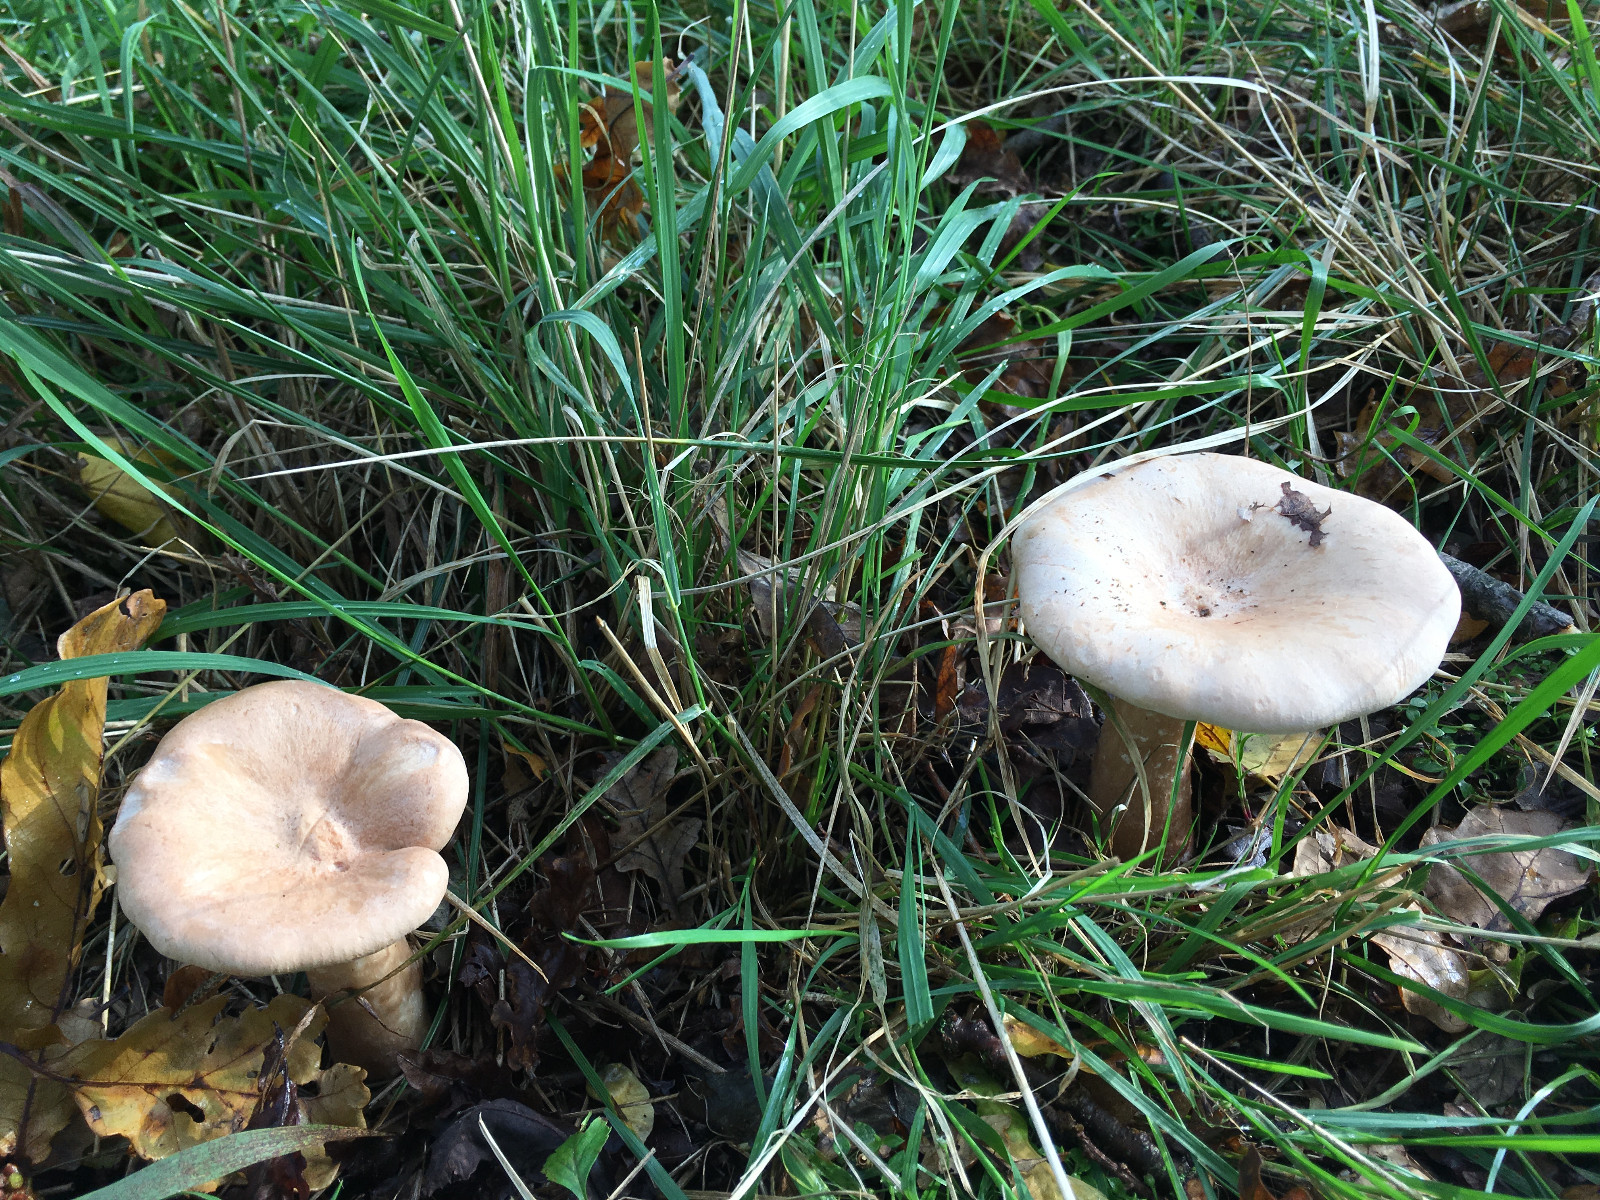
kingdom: Fungi
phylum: Basidiomycota
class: Agaricomycetes
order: Agaricales
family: Tricholomataceae
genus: Infundibulicybe
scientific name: Infundibulicybe geotropa
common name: stor tragthat
